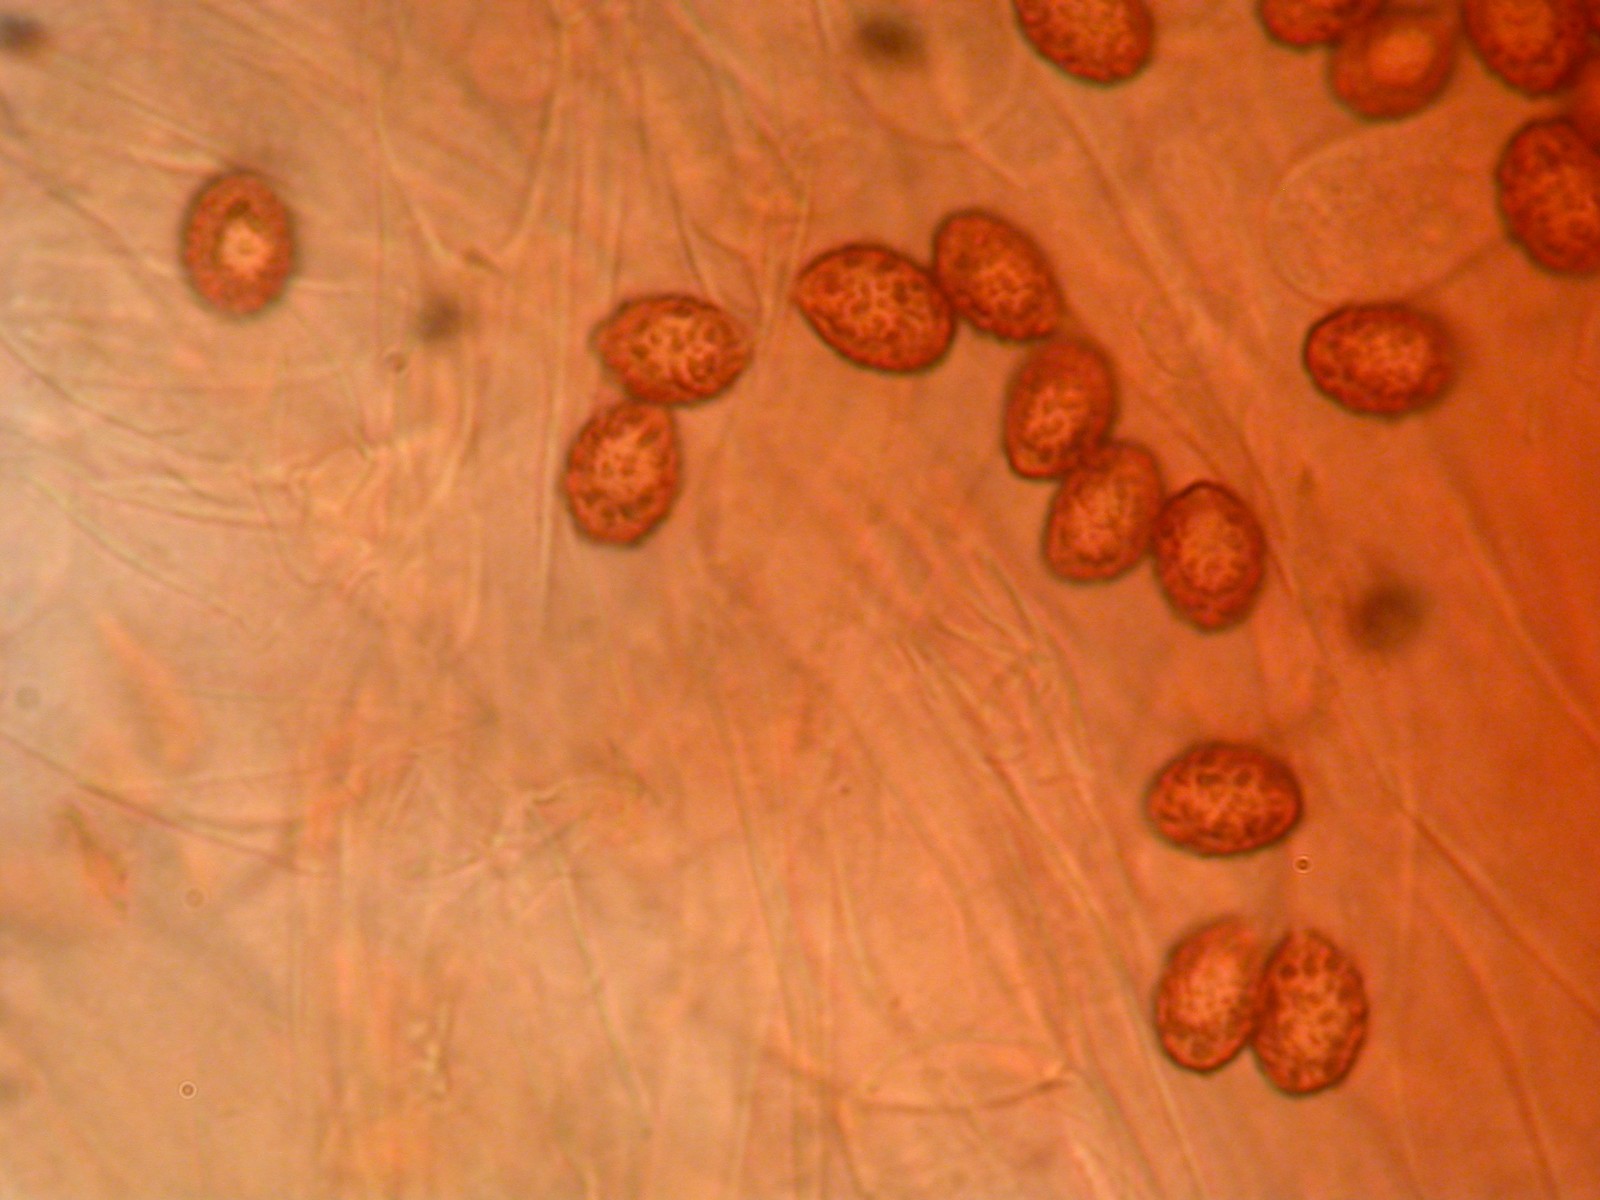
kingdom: Fungi
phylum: Basidiomycota
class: Agaricomycetes
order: Agaricales
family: Cortinariaceae
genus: Cortinarius
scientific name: Cortinarius hinnuleus
